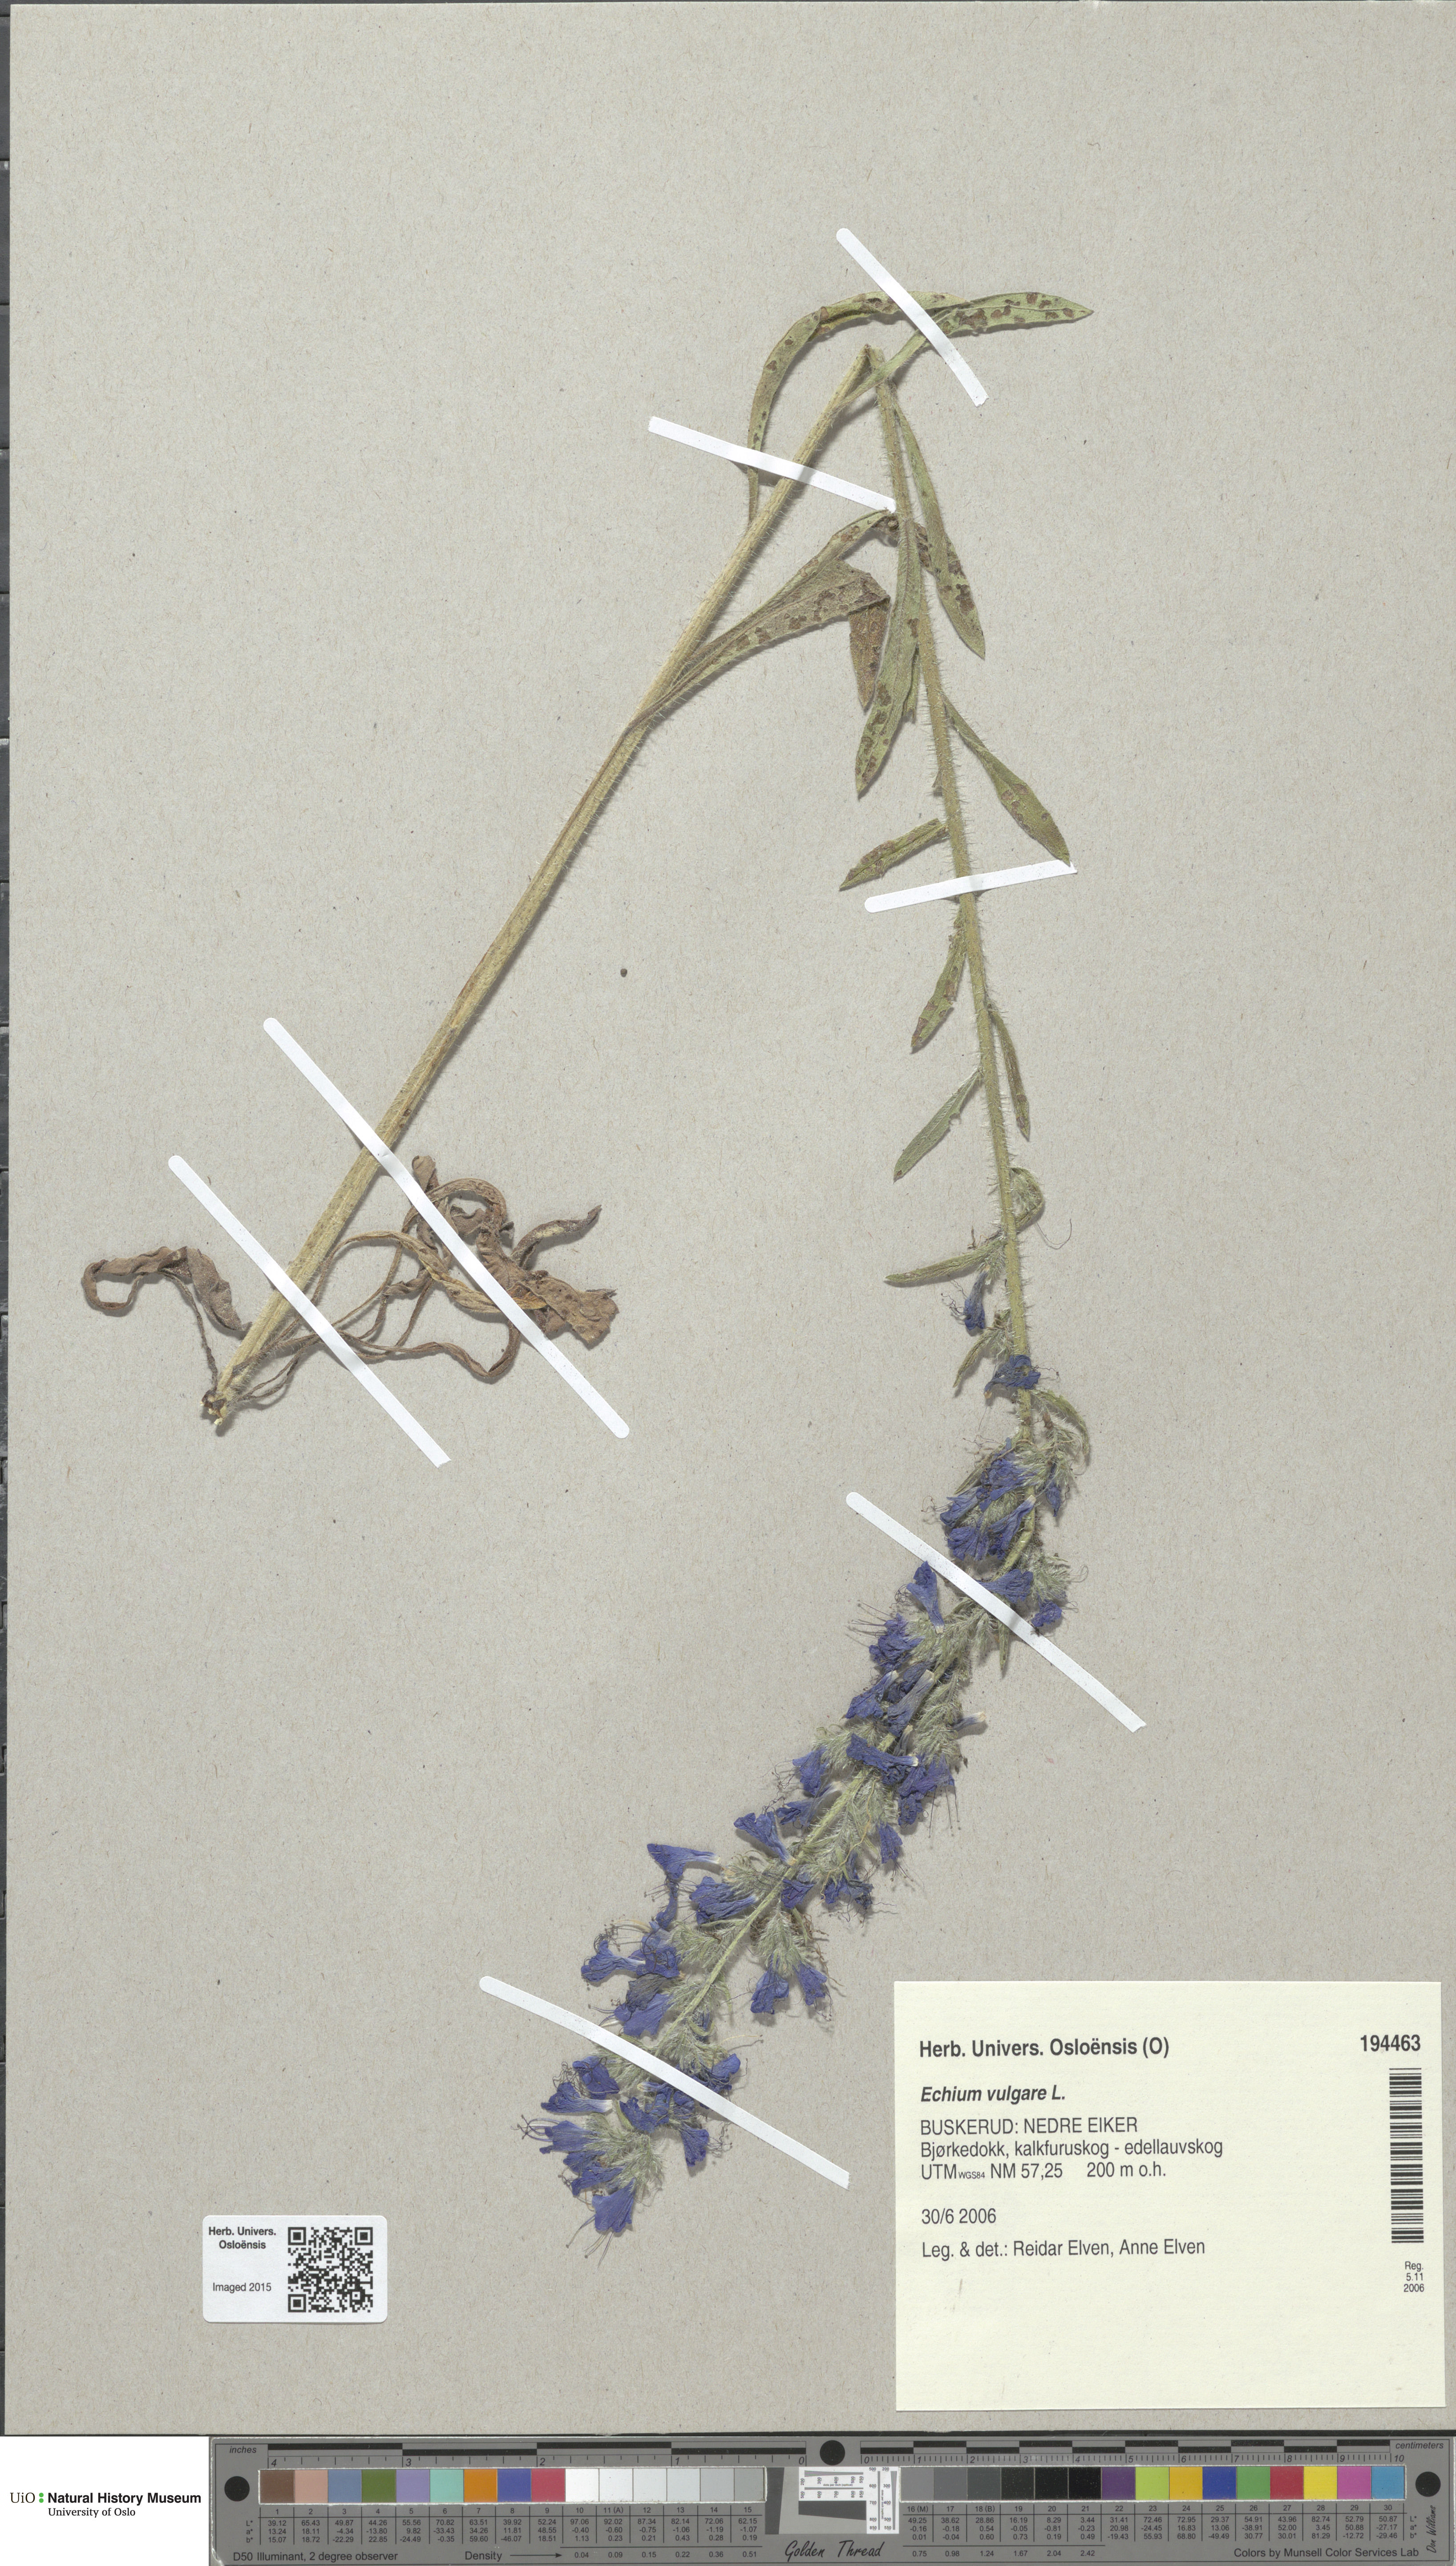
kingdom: Plantae
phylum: Tracheophyta
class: Magnoliopsida
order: Boraginales
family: Boraginaceae
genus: Echium
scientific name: Echium vulgare
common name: Common viper's bugloss
